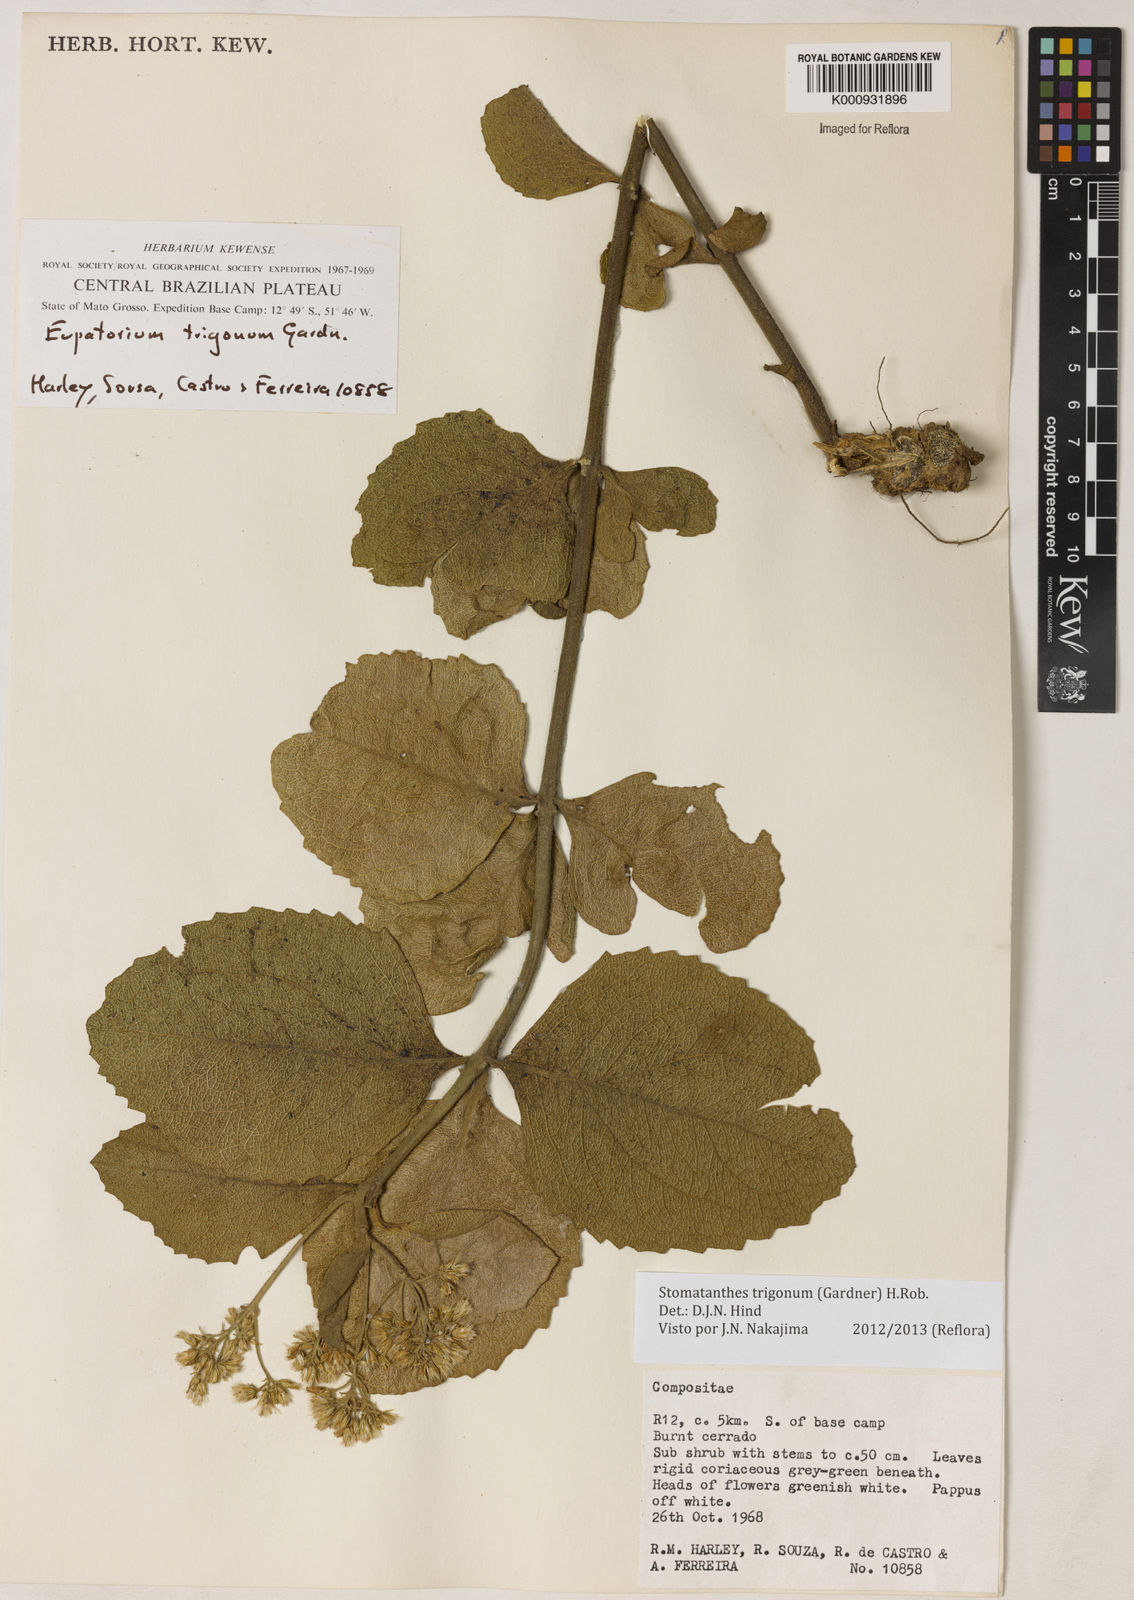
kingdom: Plantae
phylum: Tracheophyta
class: Magnoliopsida
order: Asterales
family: Asteraceae
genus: Stomatanthes
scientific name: Stomatanthes trigonus
